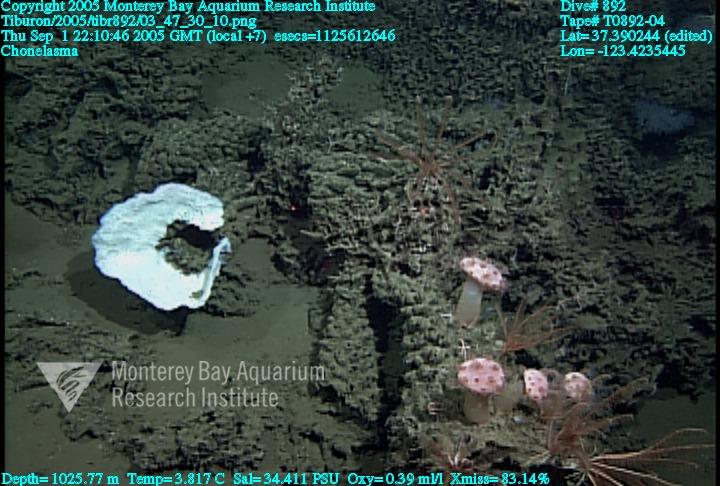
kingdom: Animalia
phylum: Porifera
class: Hexactinellida
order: Sceptrulophora
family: Euretidae
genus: Chonelasma
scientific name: Chonelasma
